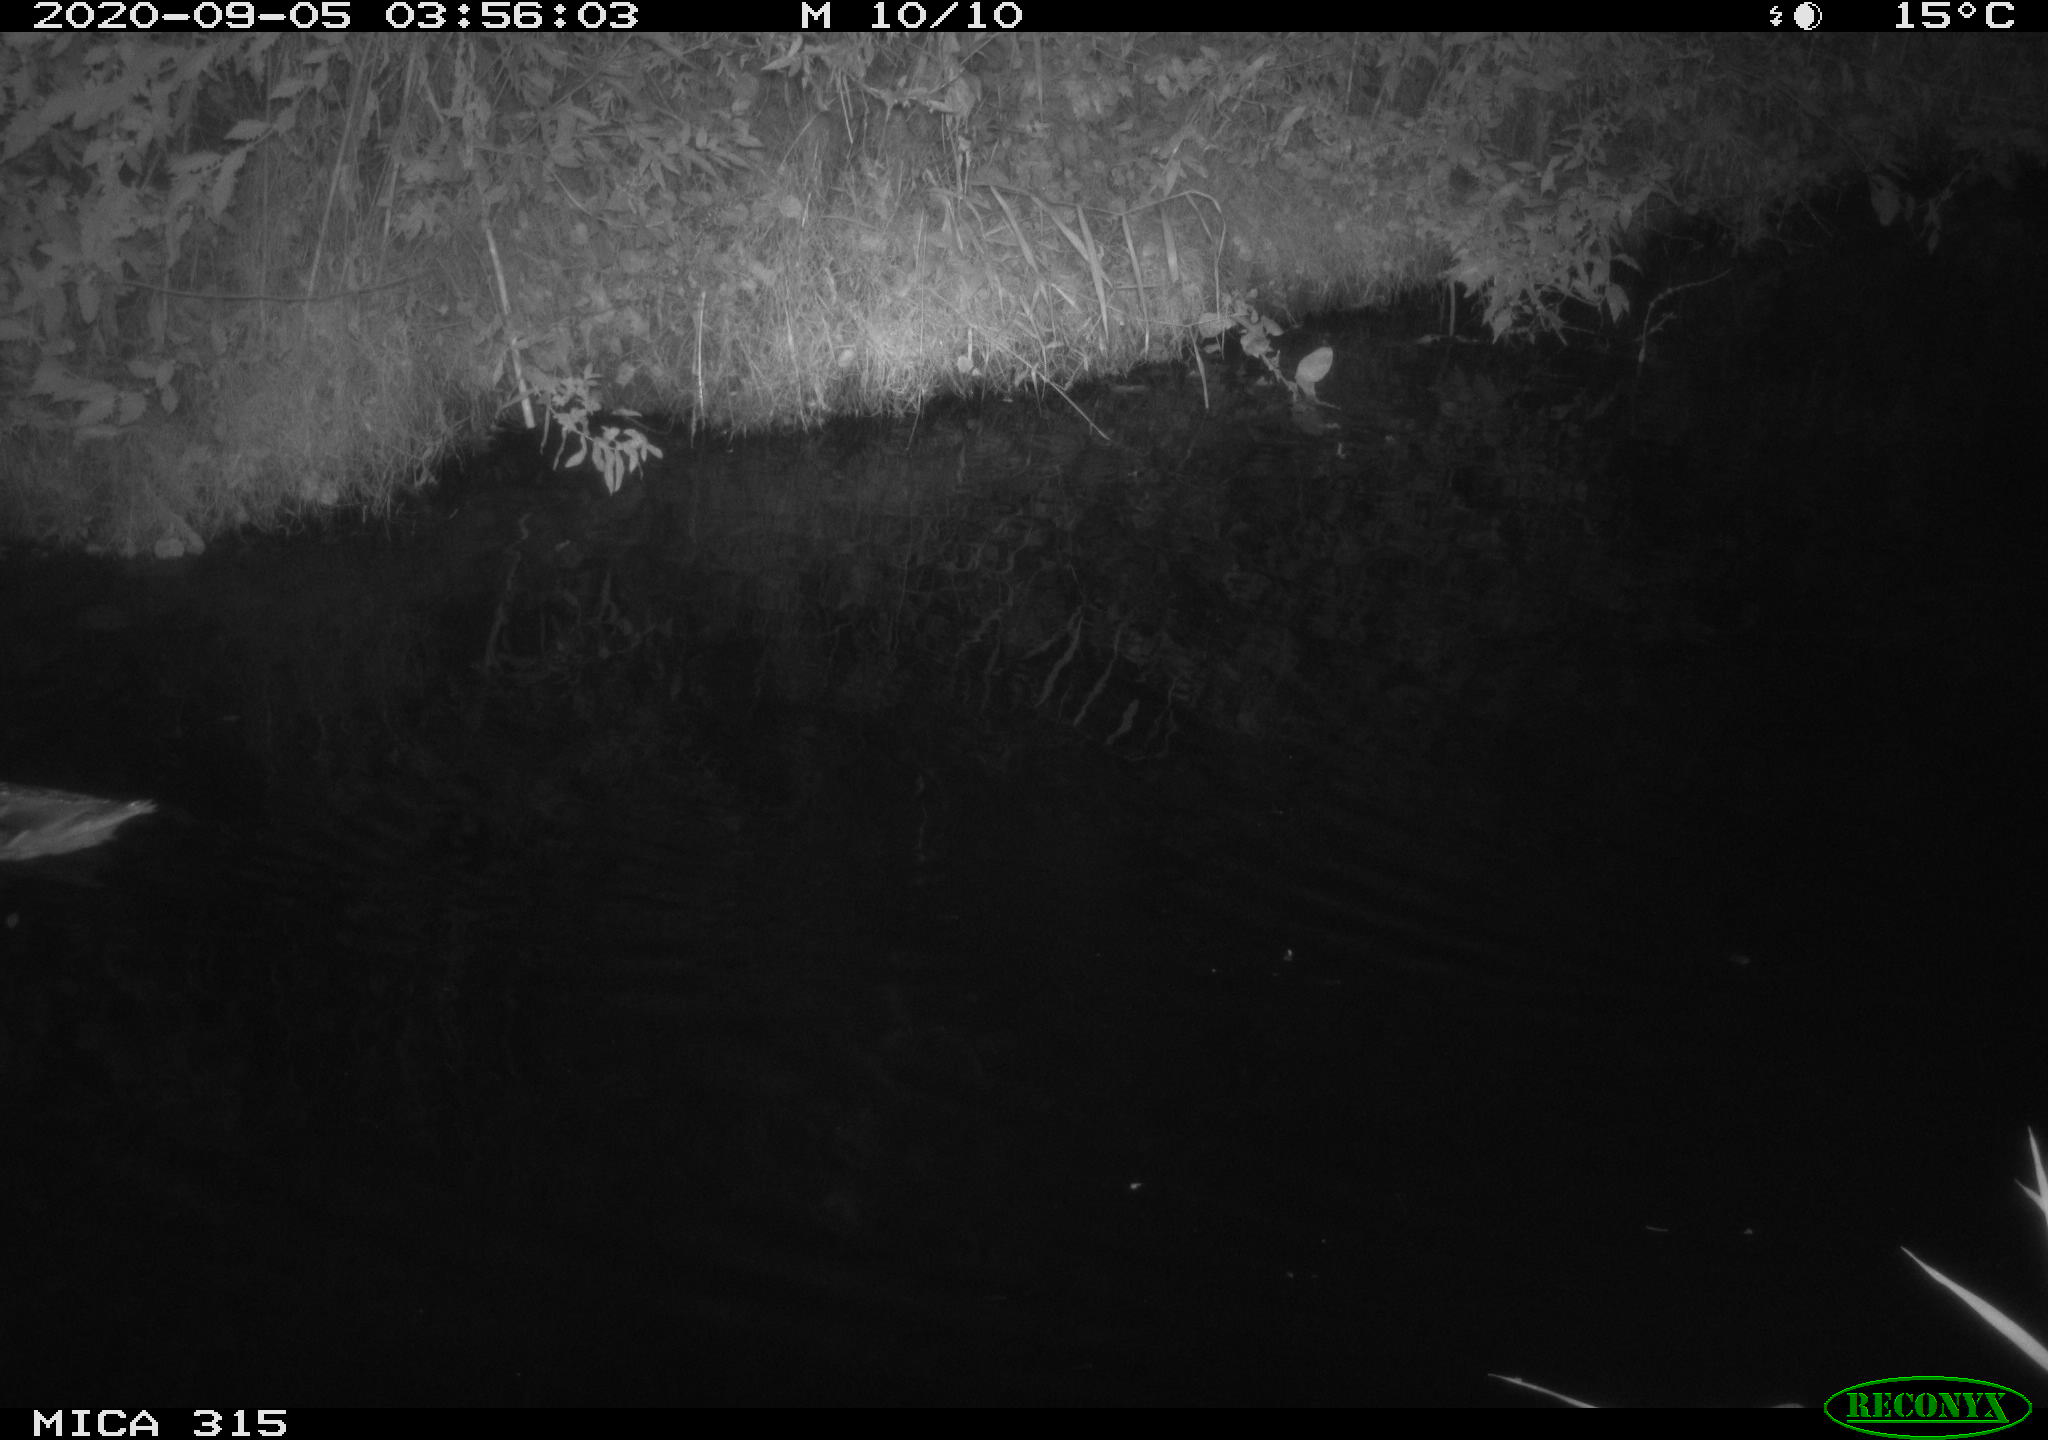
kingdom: Animalia
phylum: Chordata
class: Aves
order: Anseriformes
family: Anatidae
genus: Anas
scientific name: Anas platyrhynchos
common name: Mallard
